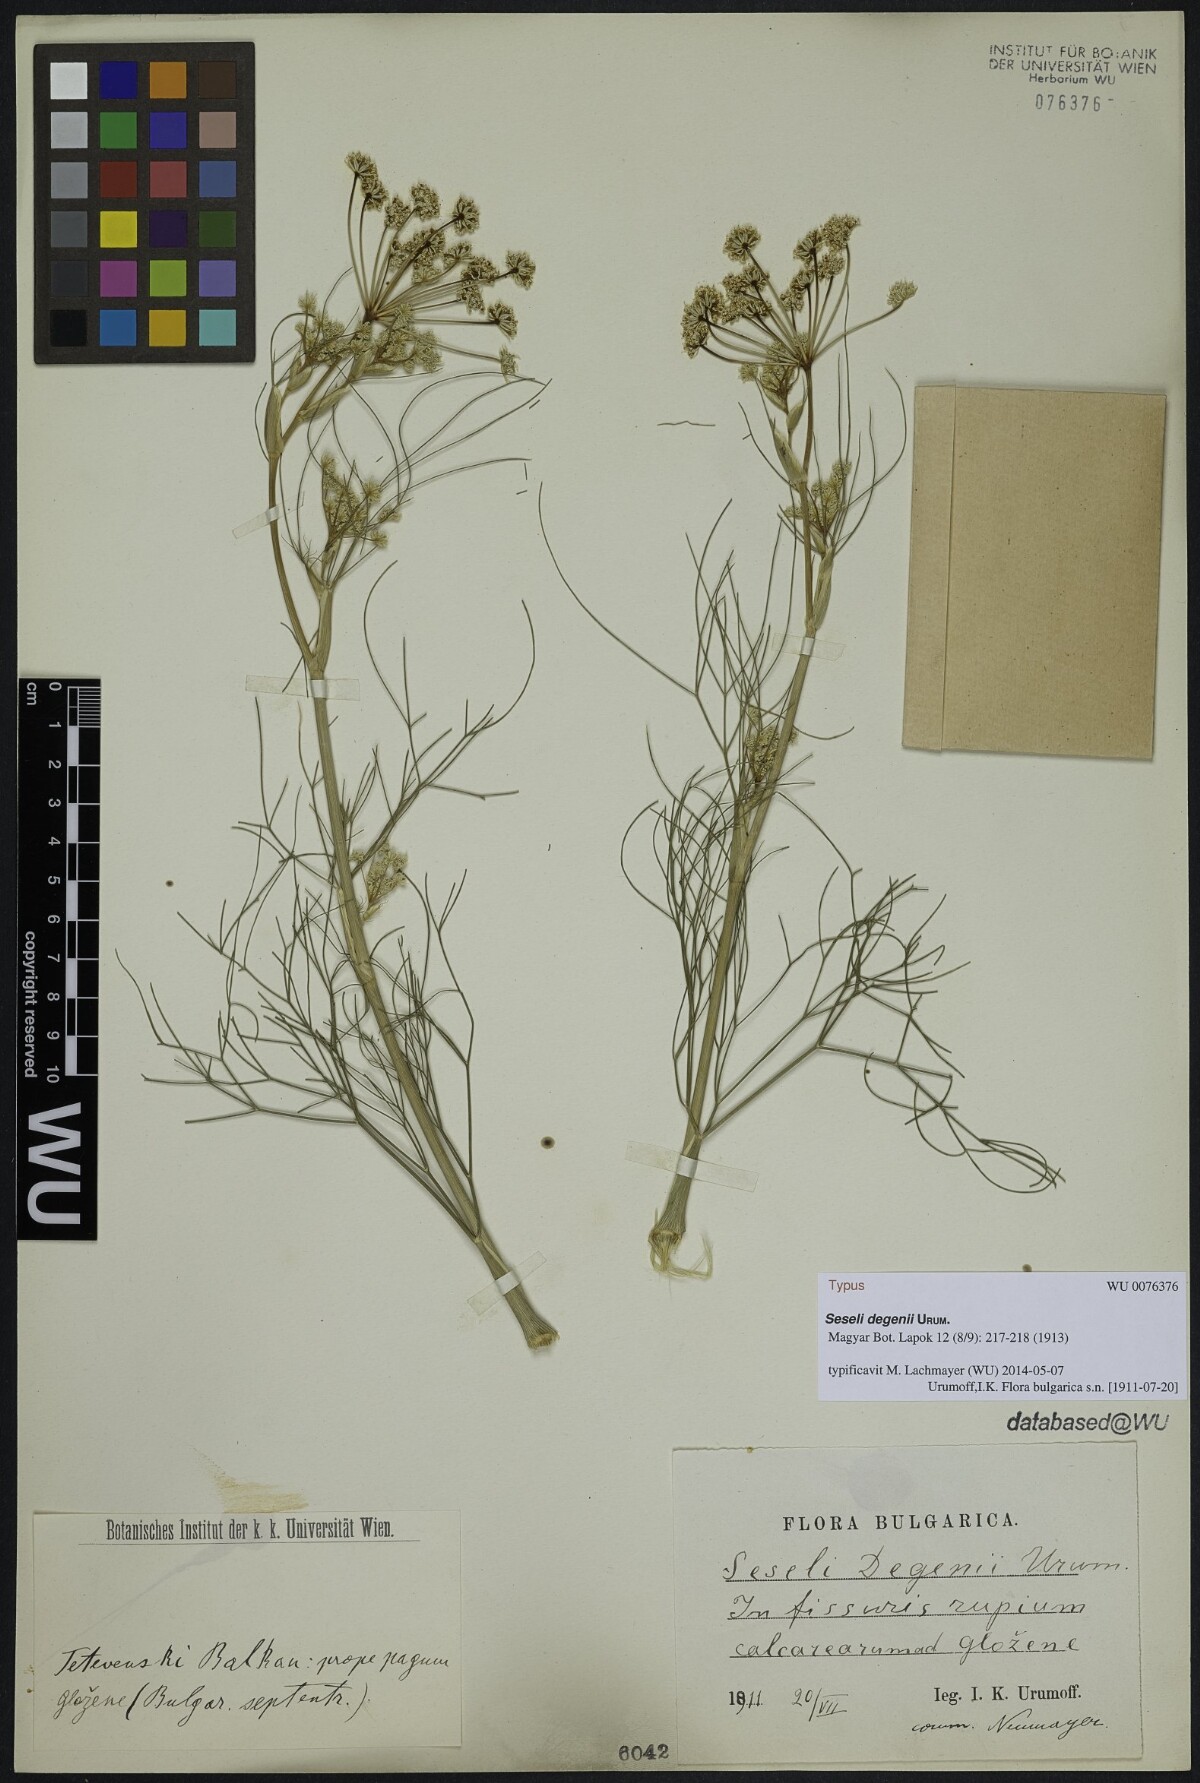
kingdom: Plantae
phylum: Tracheophyta
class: Magnoliopsida
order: Apiales
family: Apiaceae
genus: Seseli
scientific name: Seseli degenii
